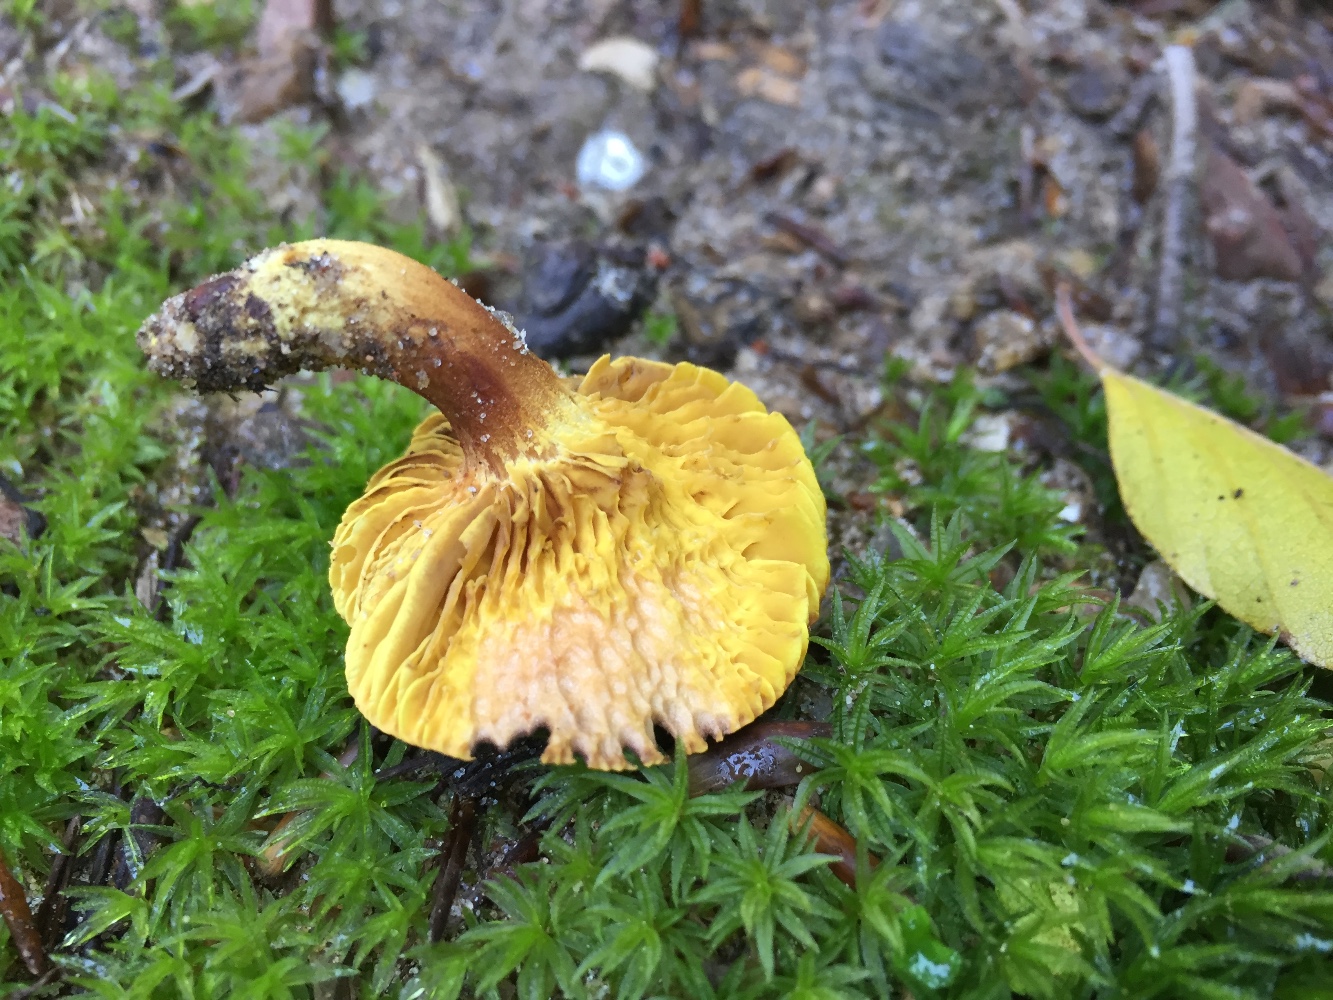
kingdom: Fungi
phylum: Basidiomycota
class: Agaricomycetes
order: Boletales
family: Boletaceae
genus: Phylloporus
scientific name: Phylloporus pelletieri
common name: lamelrørhat
